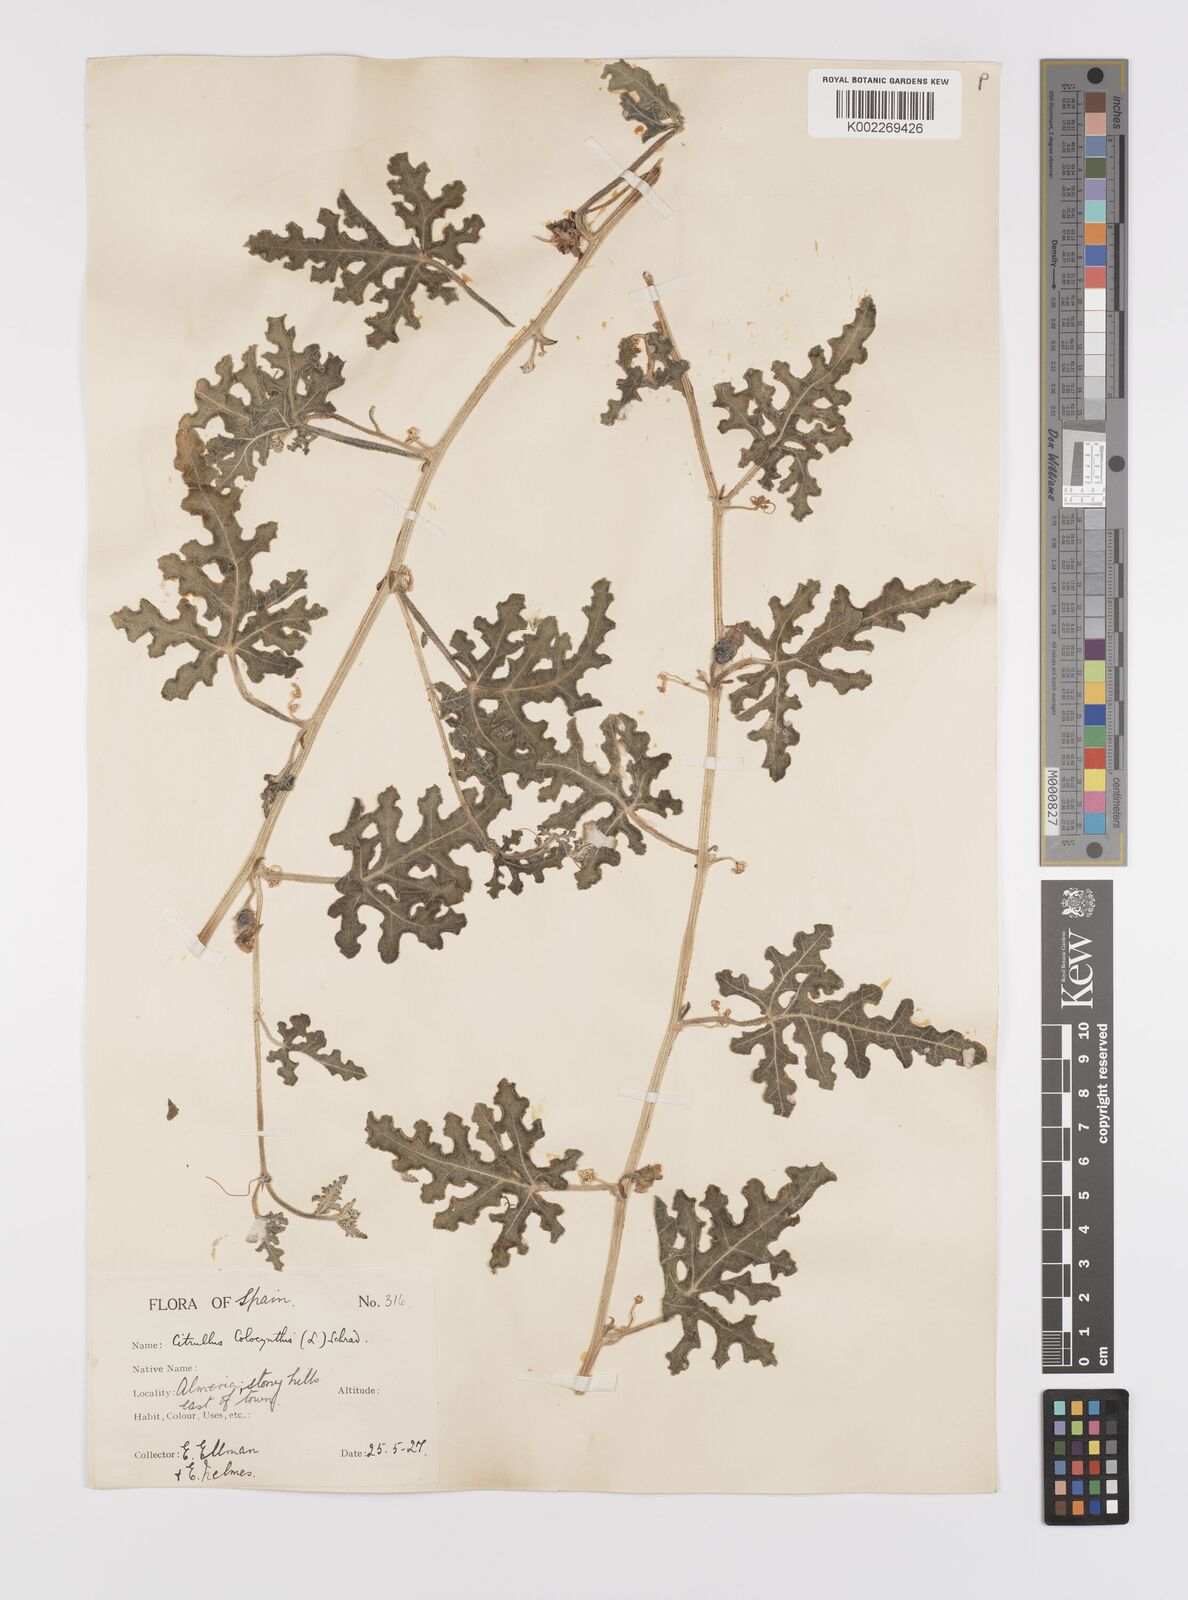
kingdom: Plantae
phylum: Tracheophyta
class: Magnoliopsida
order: Cucurbitales
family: Cucurbitaceae
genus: Citrullus
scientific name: Citrullus colocynthis
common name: Colocynth
